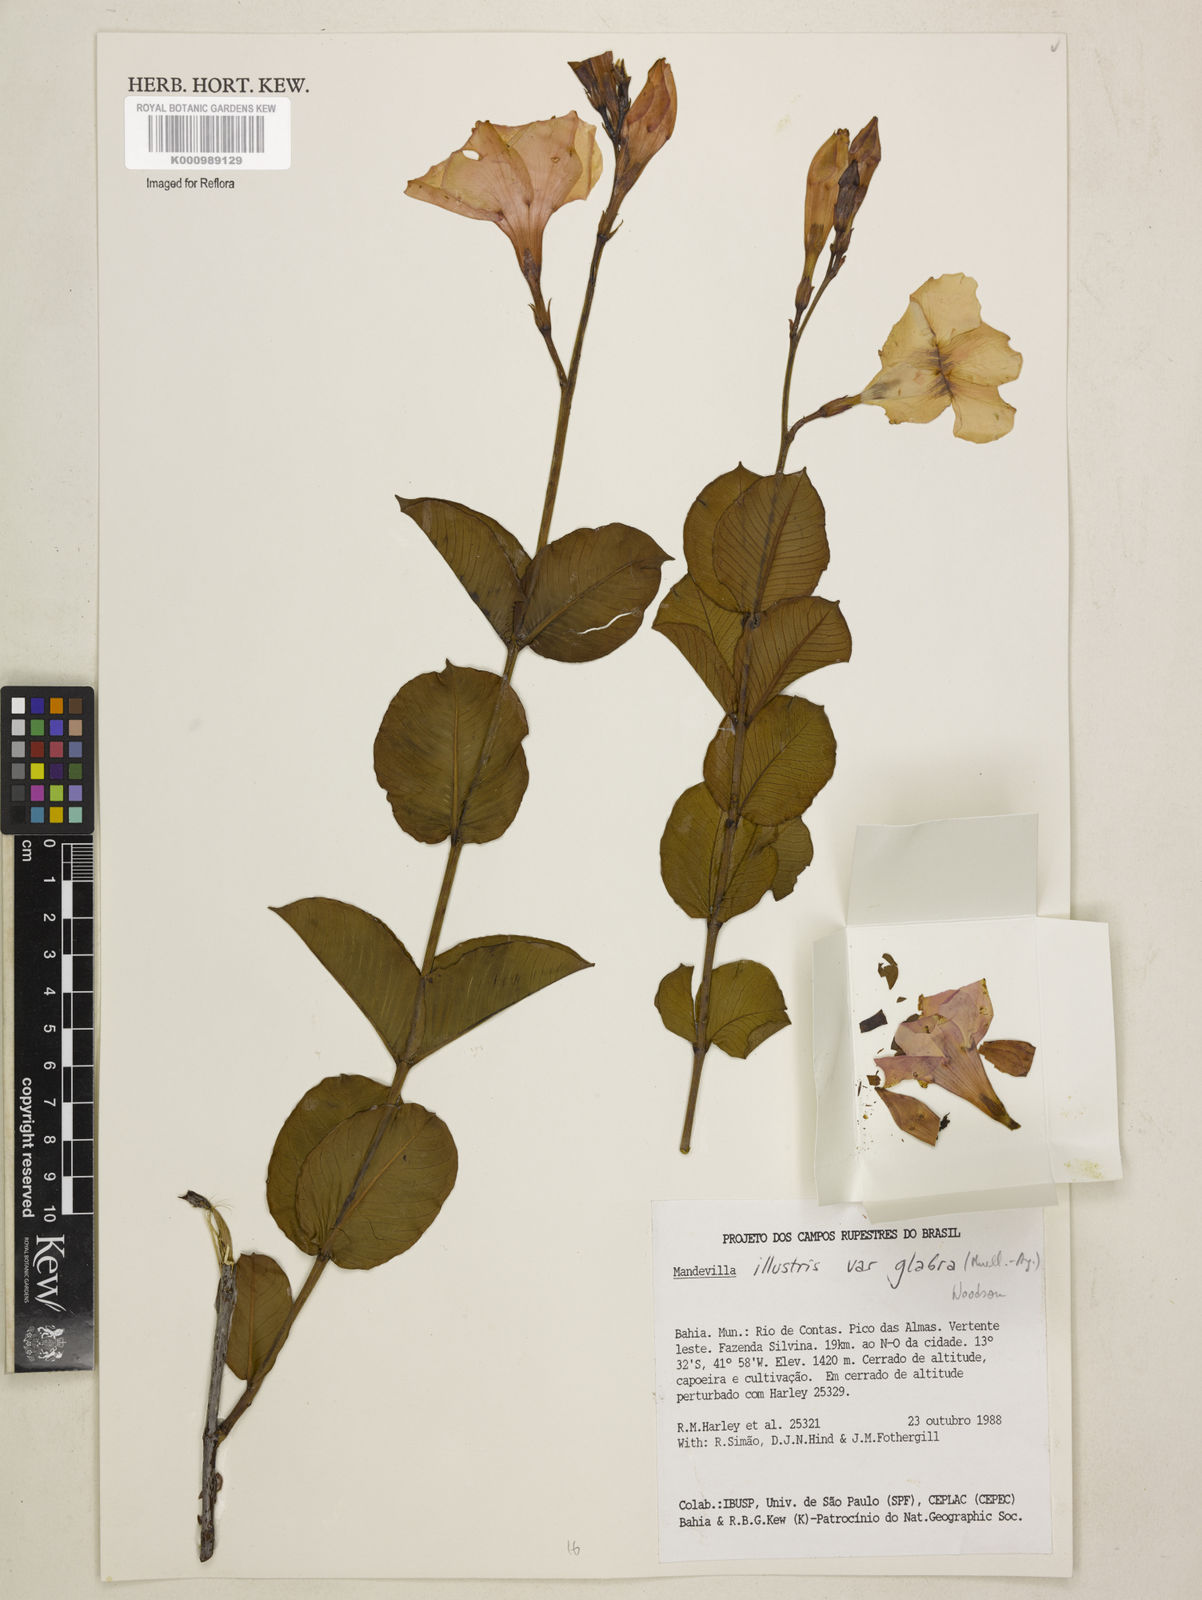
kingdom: Plantae
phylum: Tracheophyta
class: Magnoliopsida
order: Gentianales
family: Apocynaceae
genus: Mandevilla
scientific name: Mandevilla
